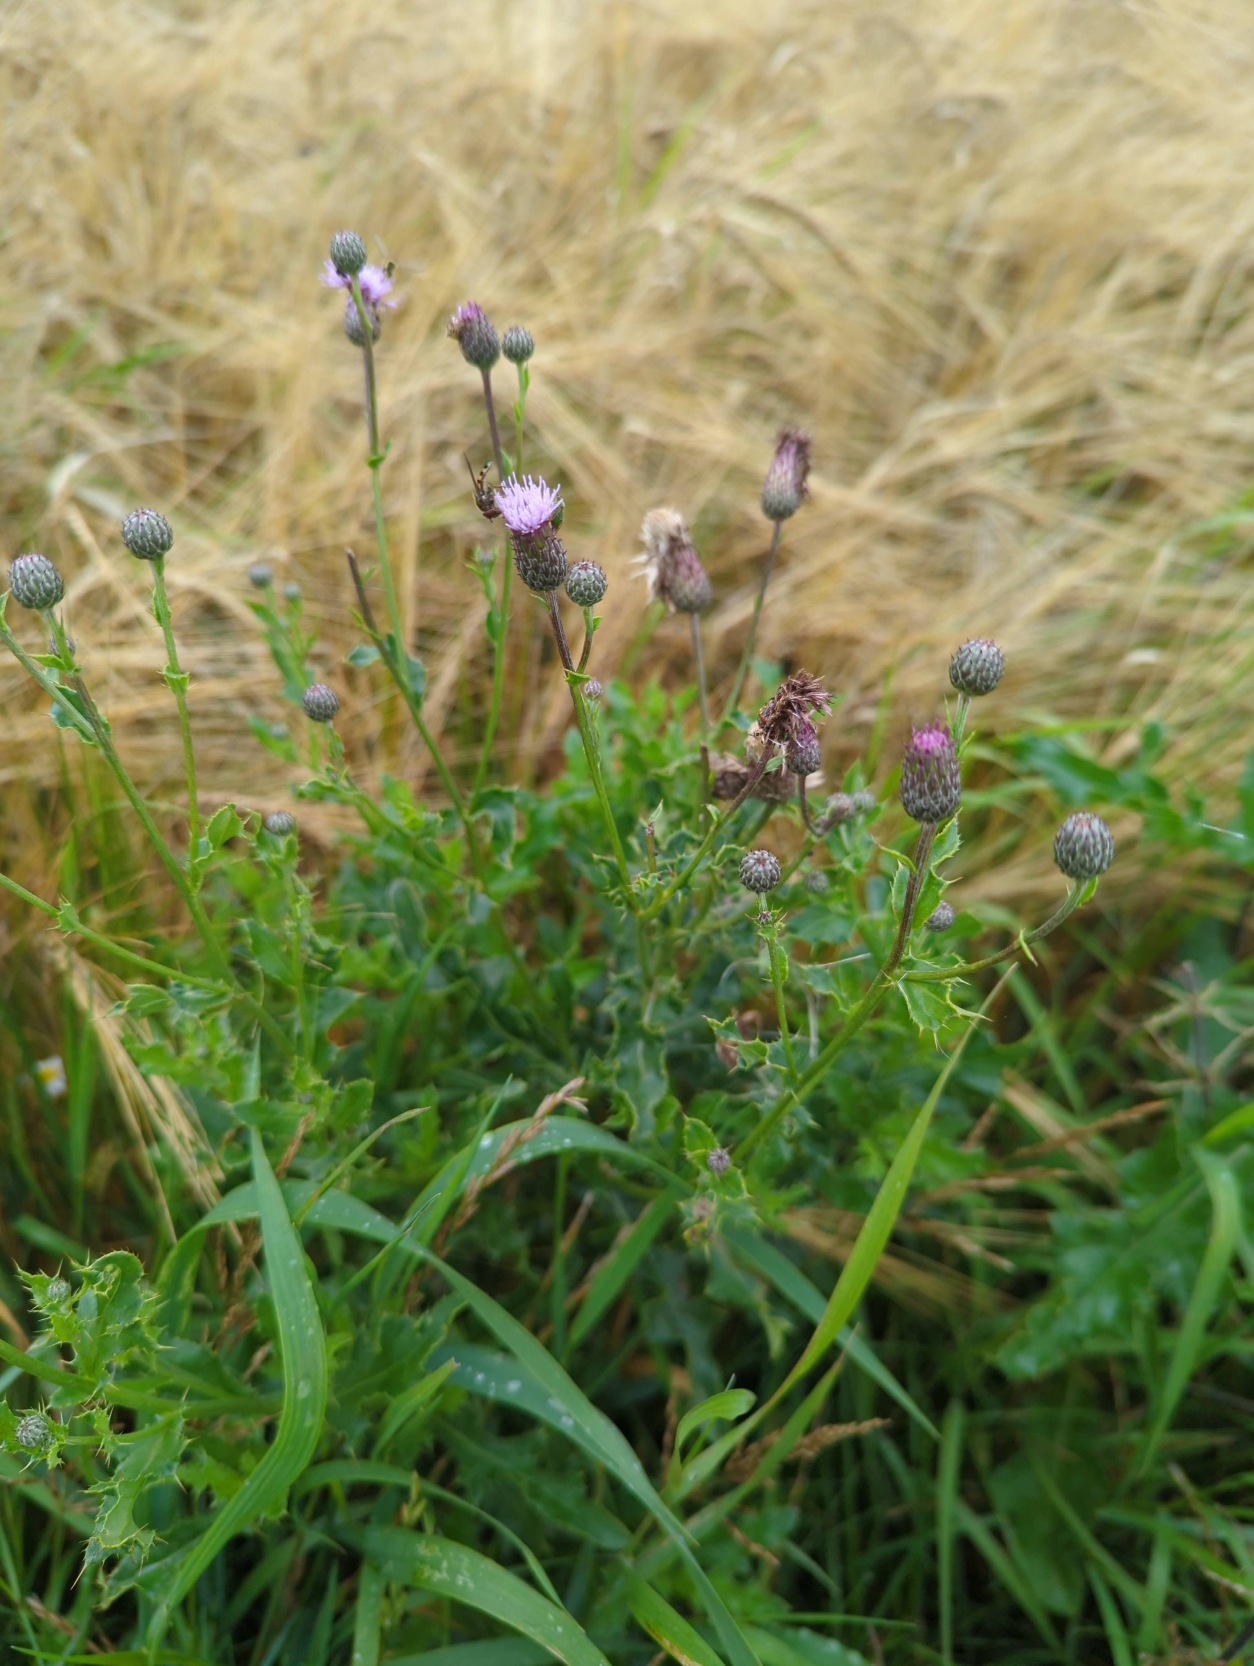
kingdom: Plantae
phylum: Tracheophyta
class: Magnoliopsida
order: Asterales
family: Asteraceae
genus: Cirsium
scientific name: Cirsium arvense
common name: Ager-tidsel
